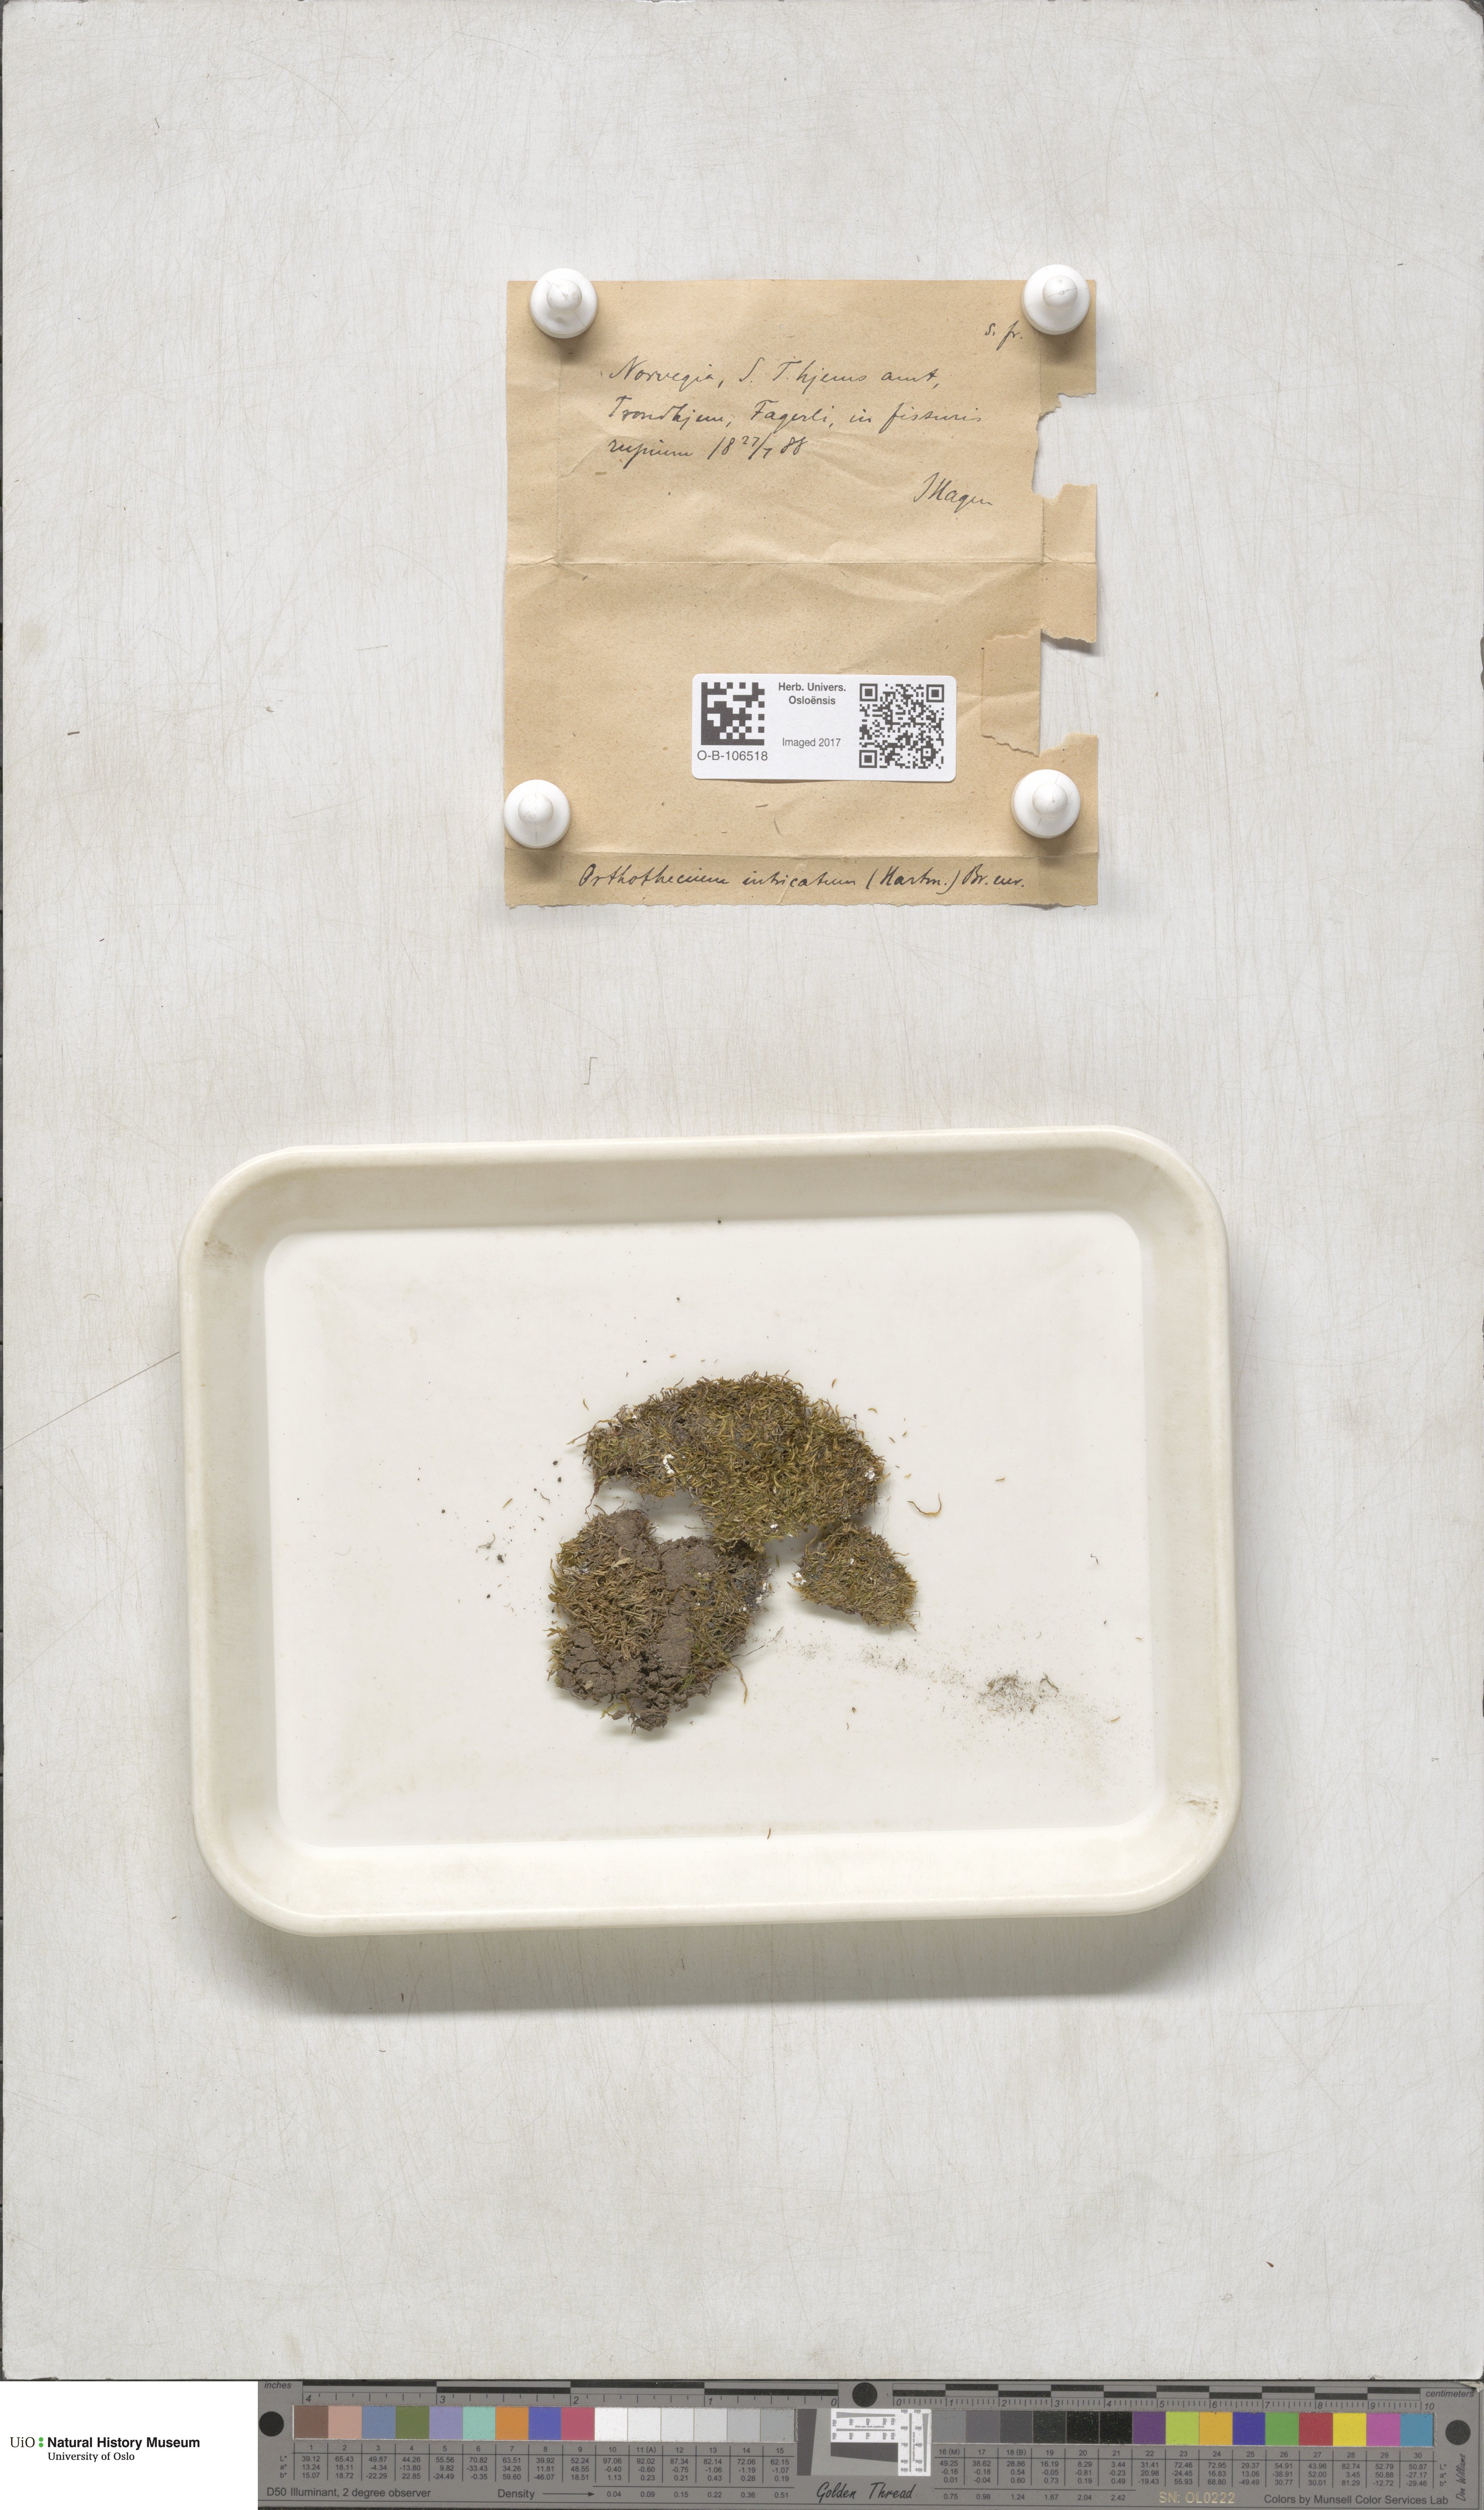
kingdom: Plantae
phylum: Bryophyta
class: Bryopsida
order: Hypnales
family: Plagiotheciaceae
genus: Orthothecium
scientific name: Orthothecium intricatum
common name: Fine-leaved erect-capsule moss
